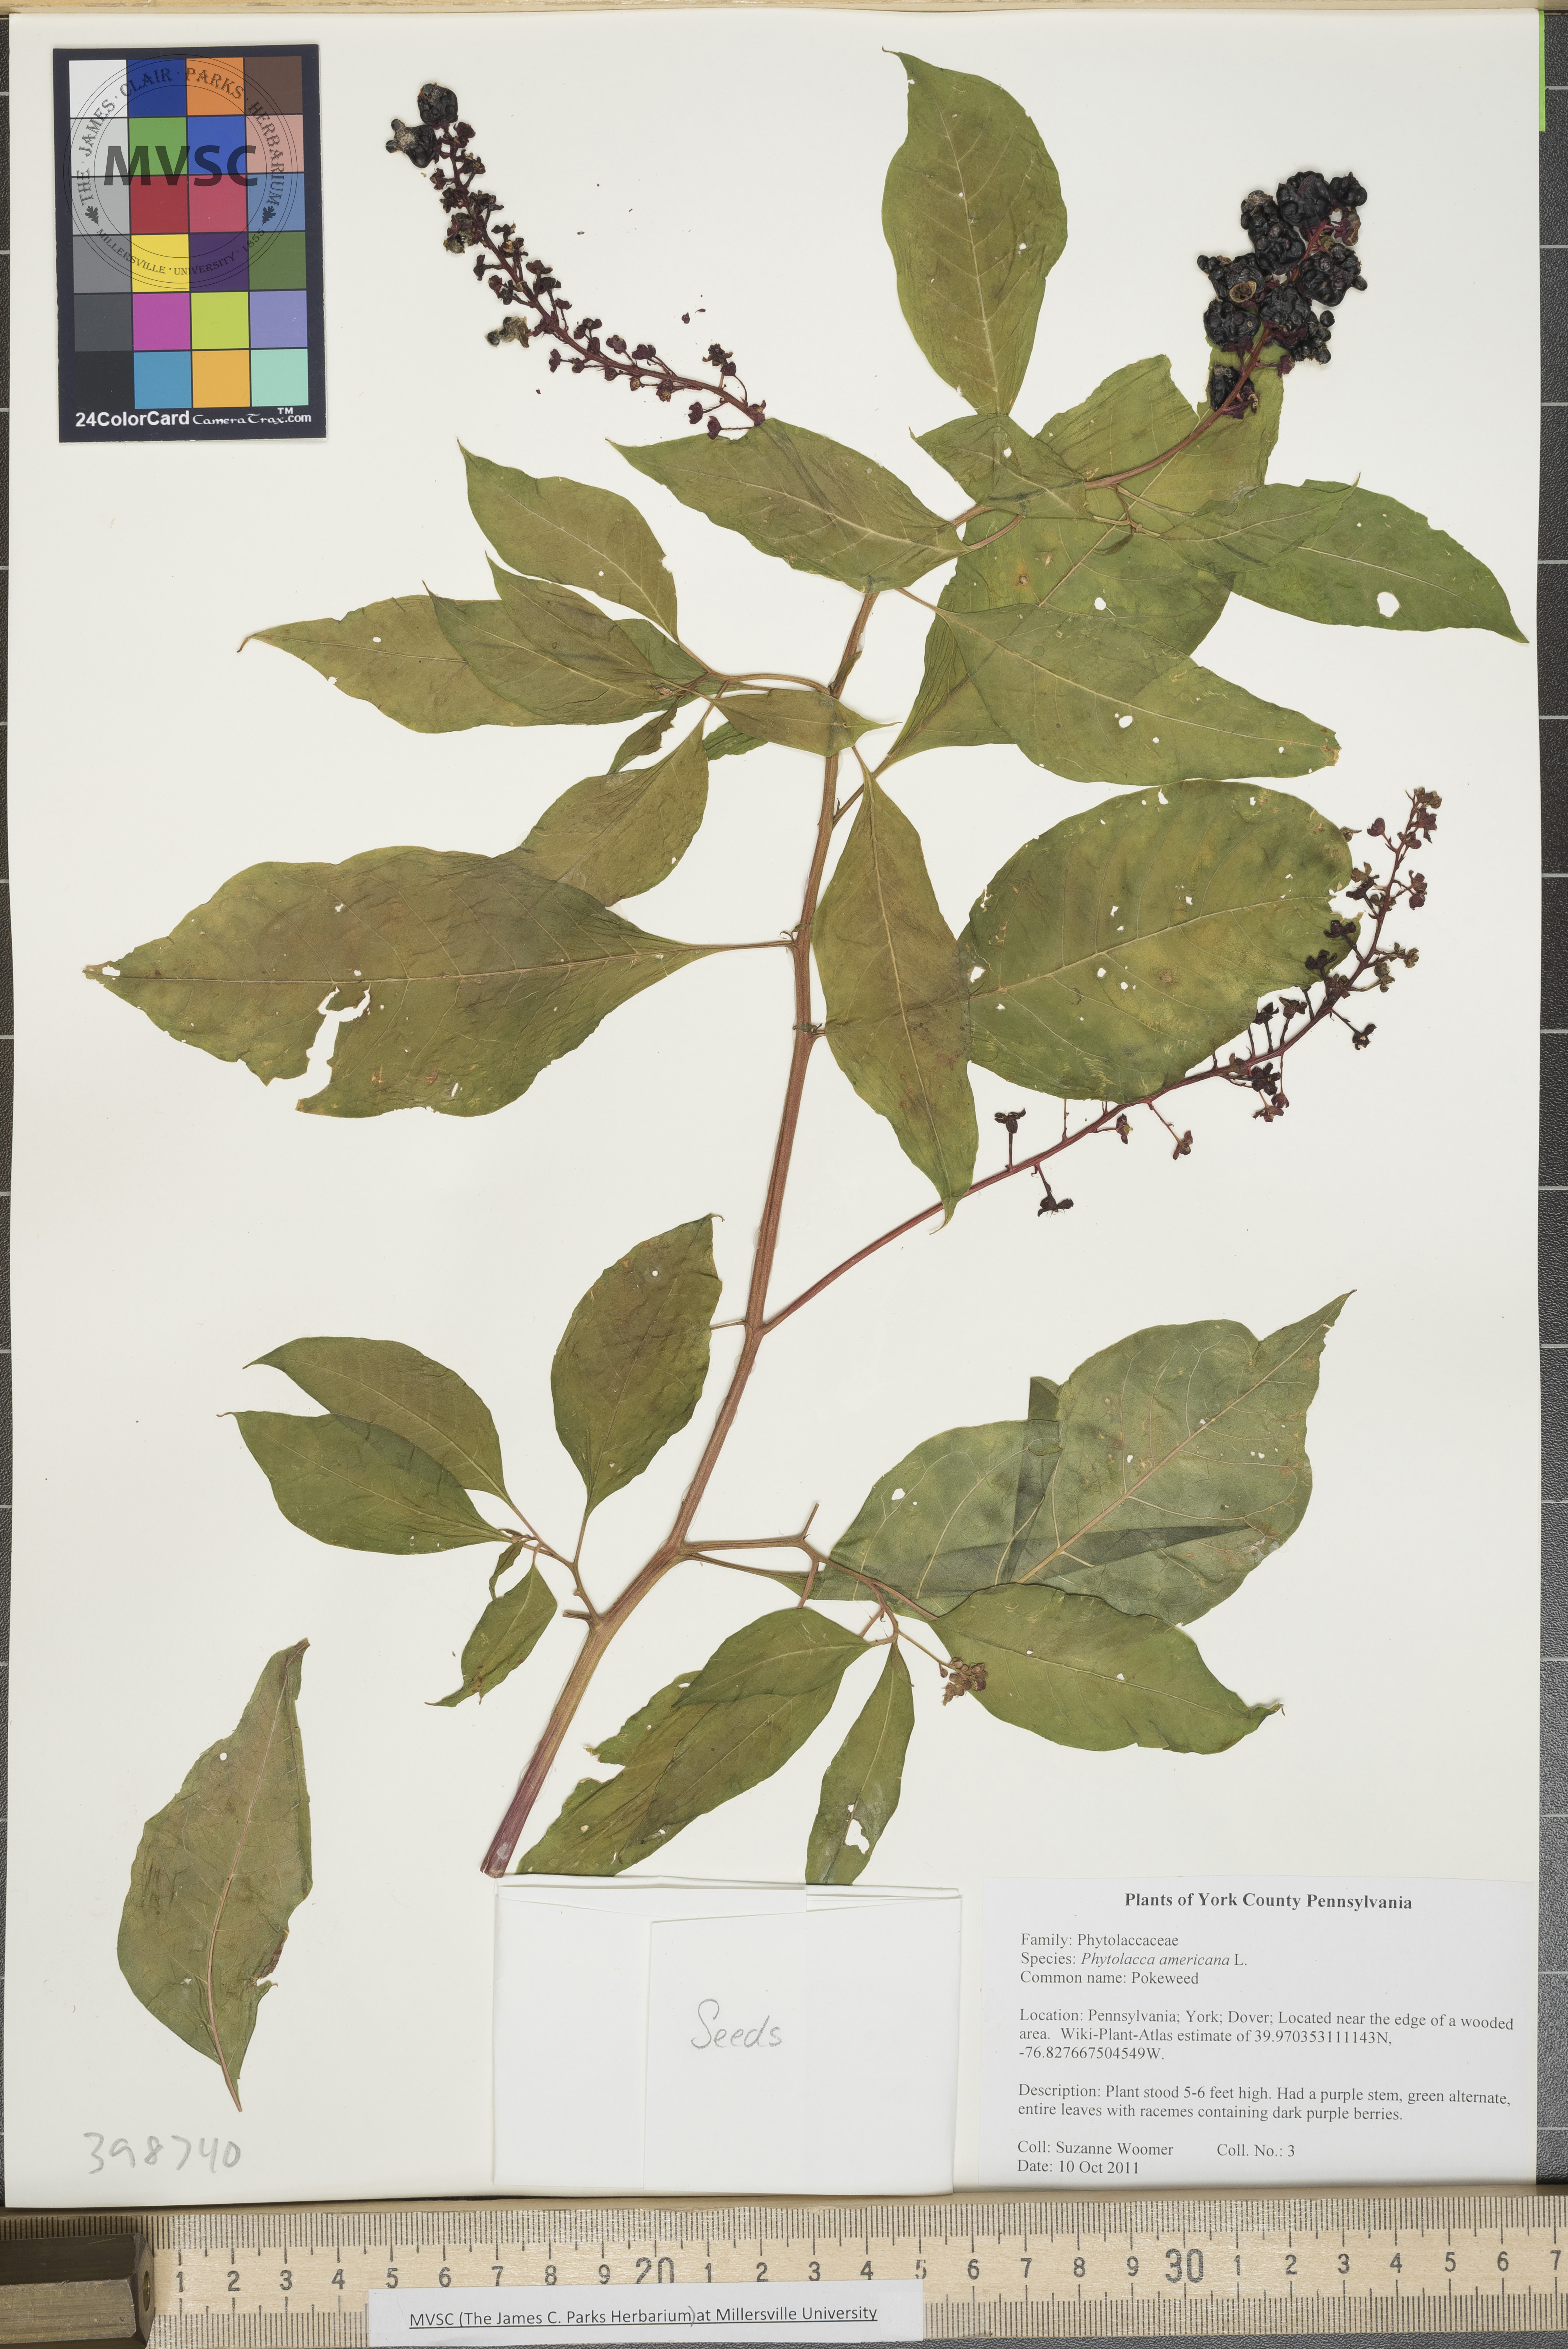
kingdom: Plantae
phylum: Tracheophyta
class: Magnoliopsida
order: Caryophyllales
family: Phytolaccaceae
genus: Phytolacca
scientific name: Phytolacca americana
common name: Pokeweed
